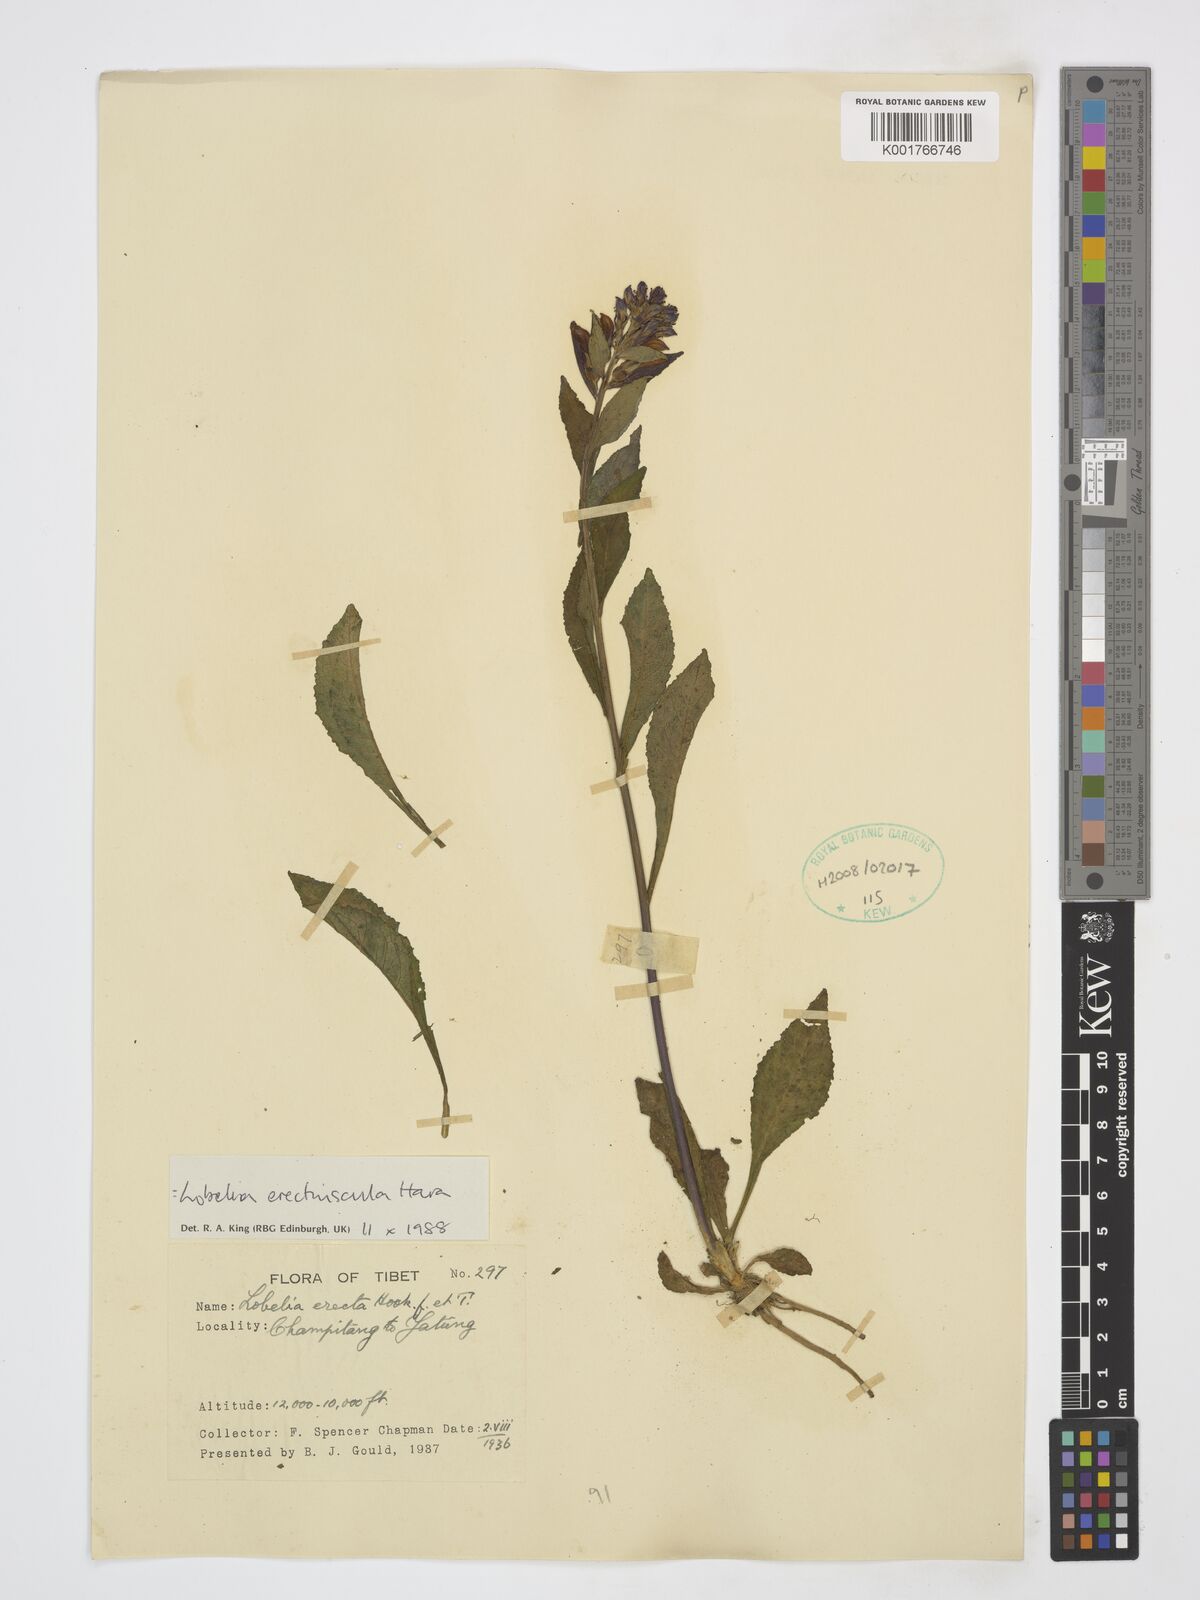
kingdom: Plantae
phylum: Tracheophyta
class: Magnoliopsida
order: Asterales
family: Campanulaceae
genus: Lobelia
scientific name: Lobelia erectiuscula
